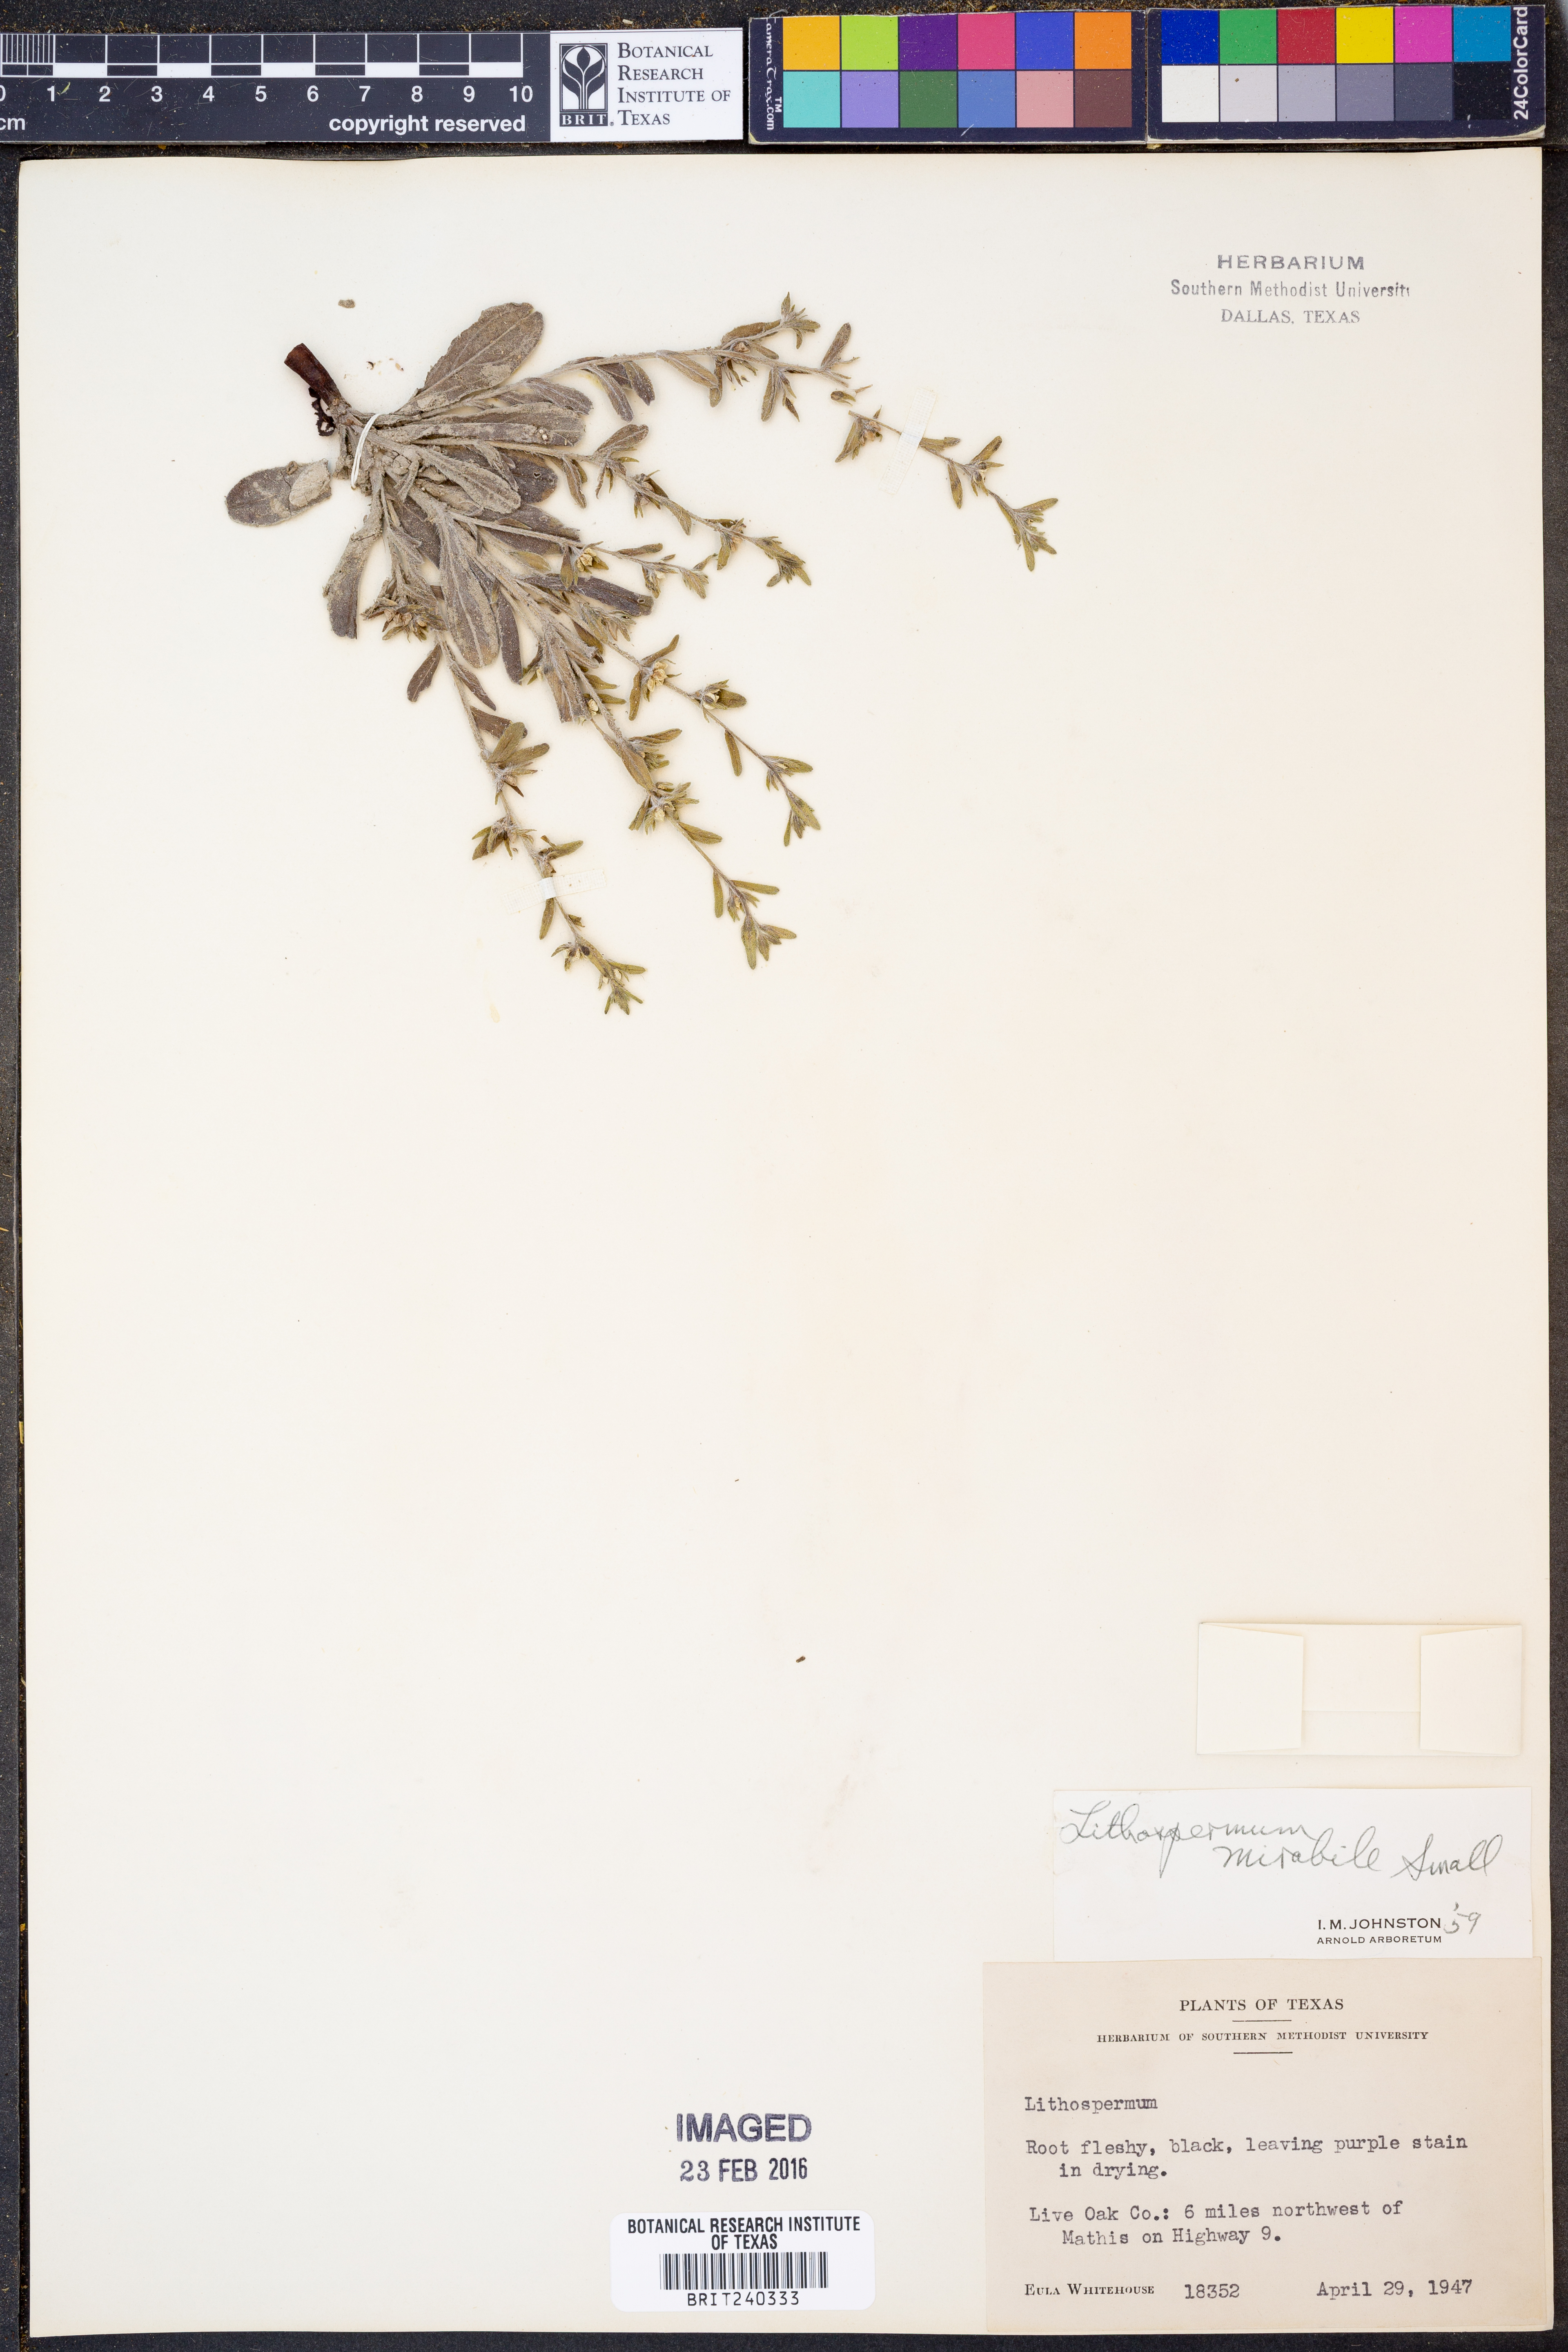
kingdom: Plantae
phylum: Tracheophyta
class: Magnoliopsida
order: Boraginales
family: Boraginaceae
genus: Lithospermum
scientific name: Lithospermum mirabile
